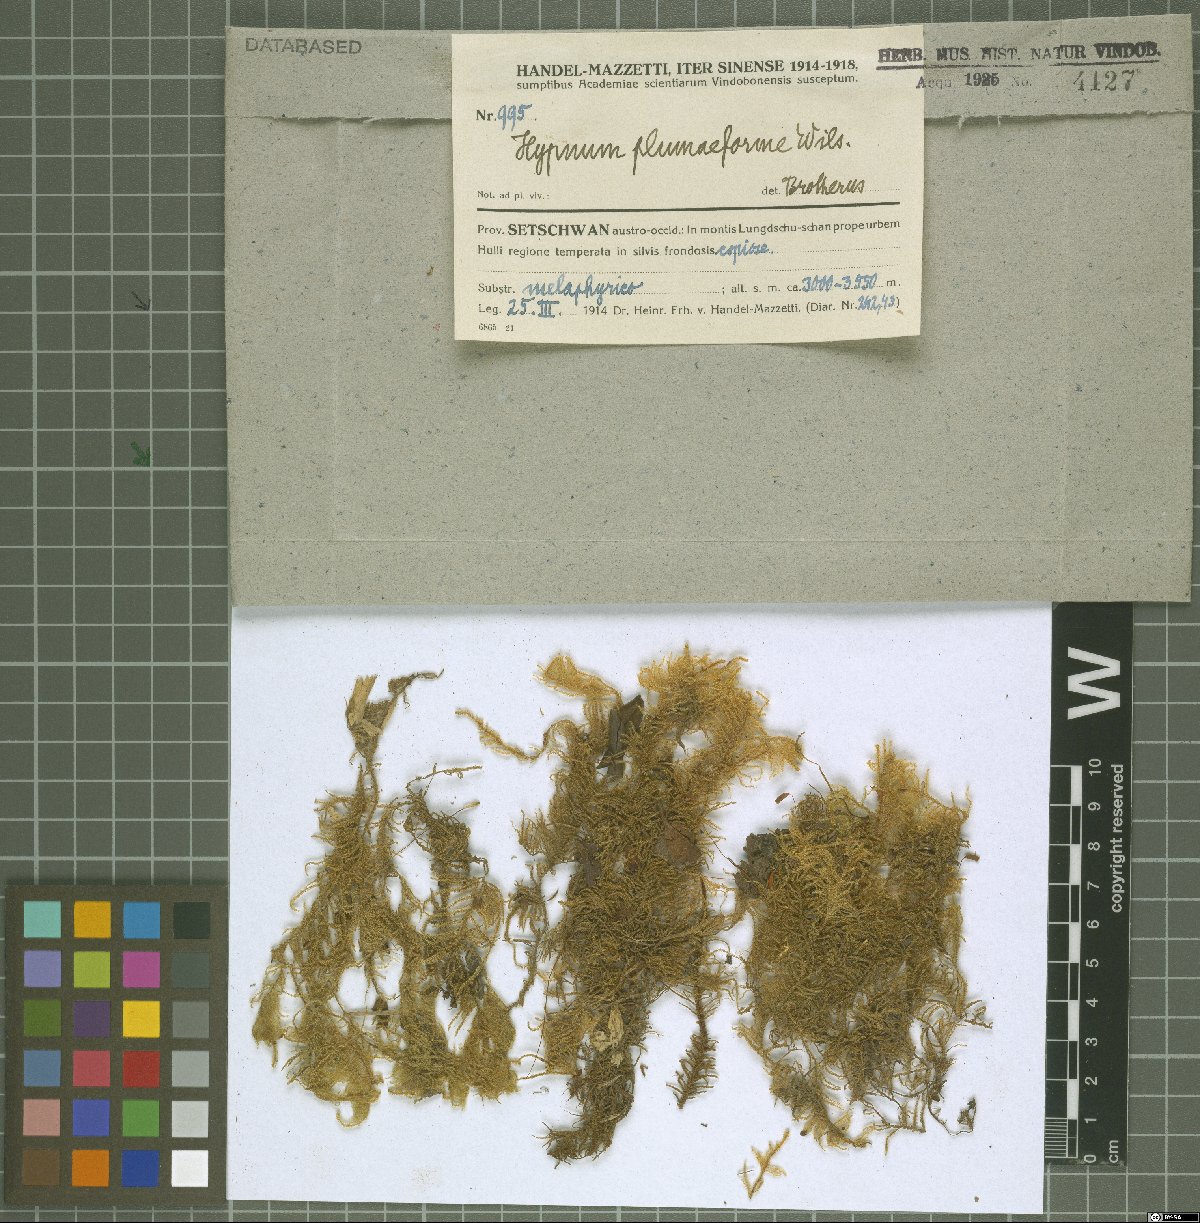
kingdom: Plantae
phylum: Bryophyta
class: Bryopsida
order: Hypnales
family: Hypnaceae
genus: Hypnum
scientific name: Hypnum plumaeforme
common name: Cypress-leaved plaitmoss
